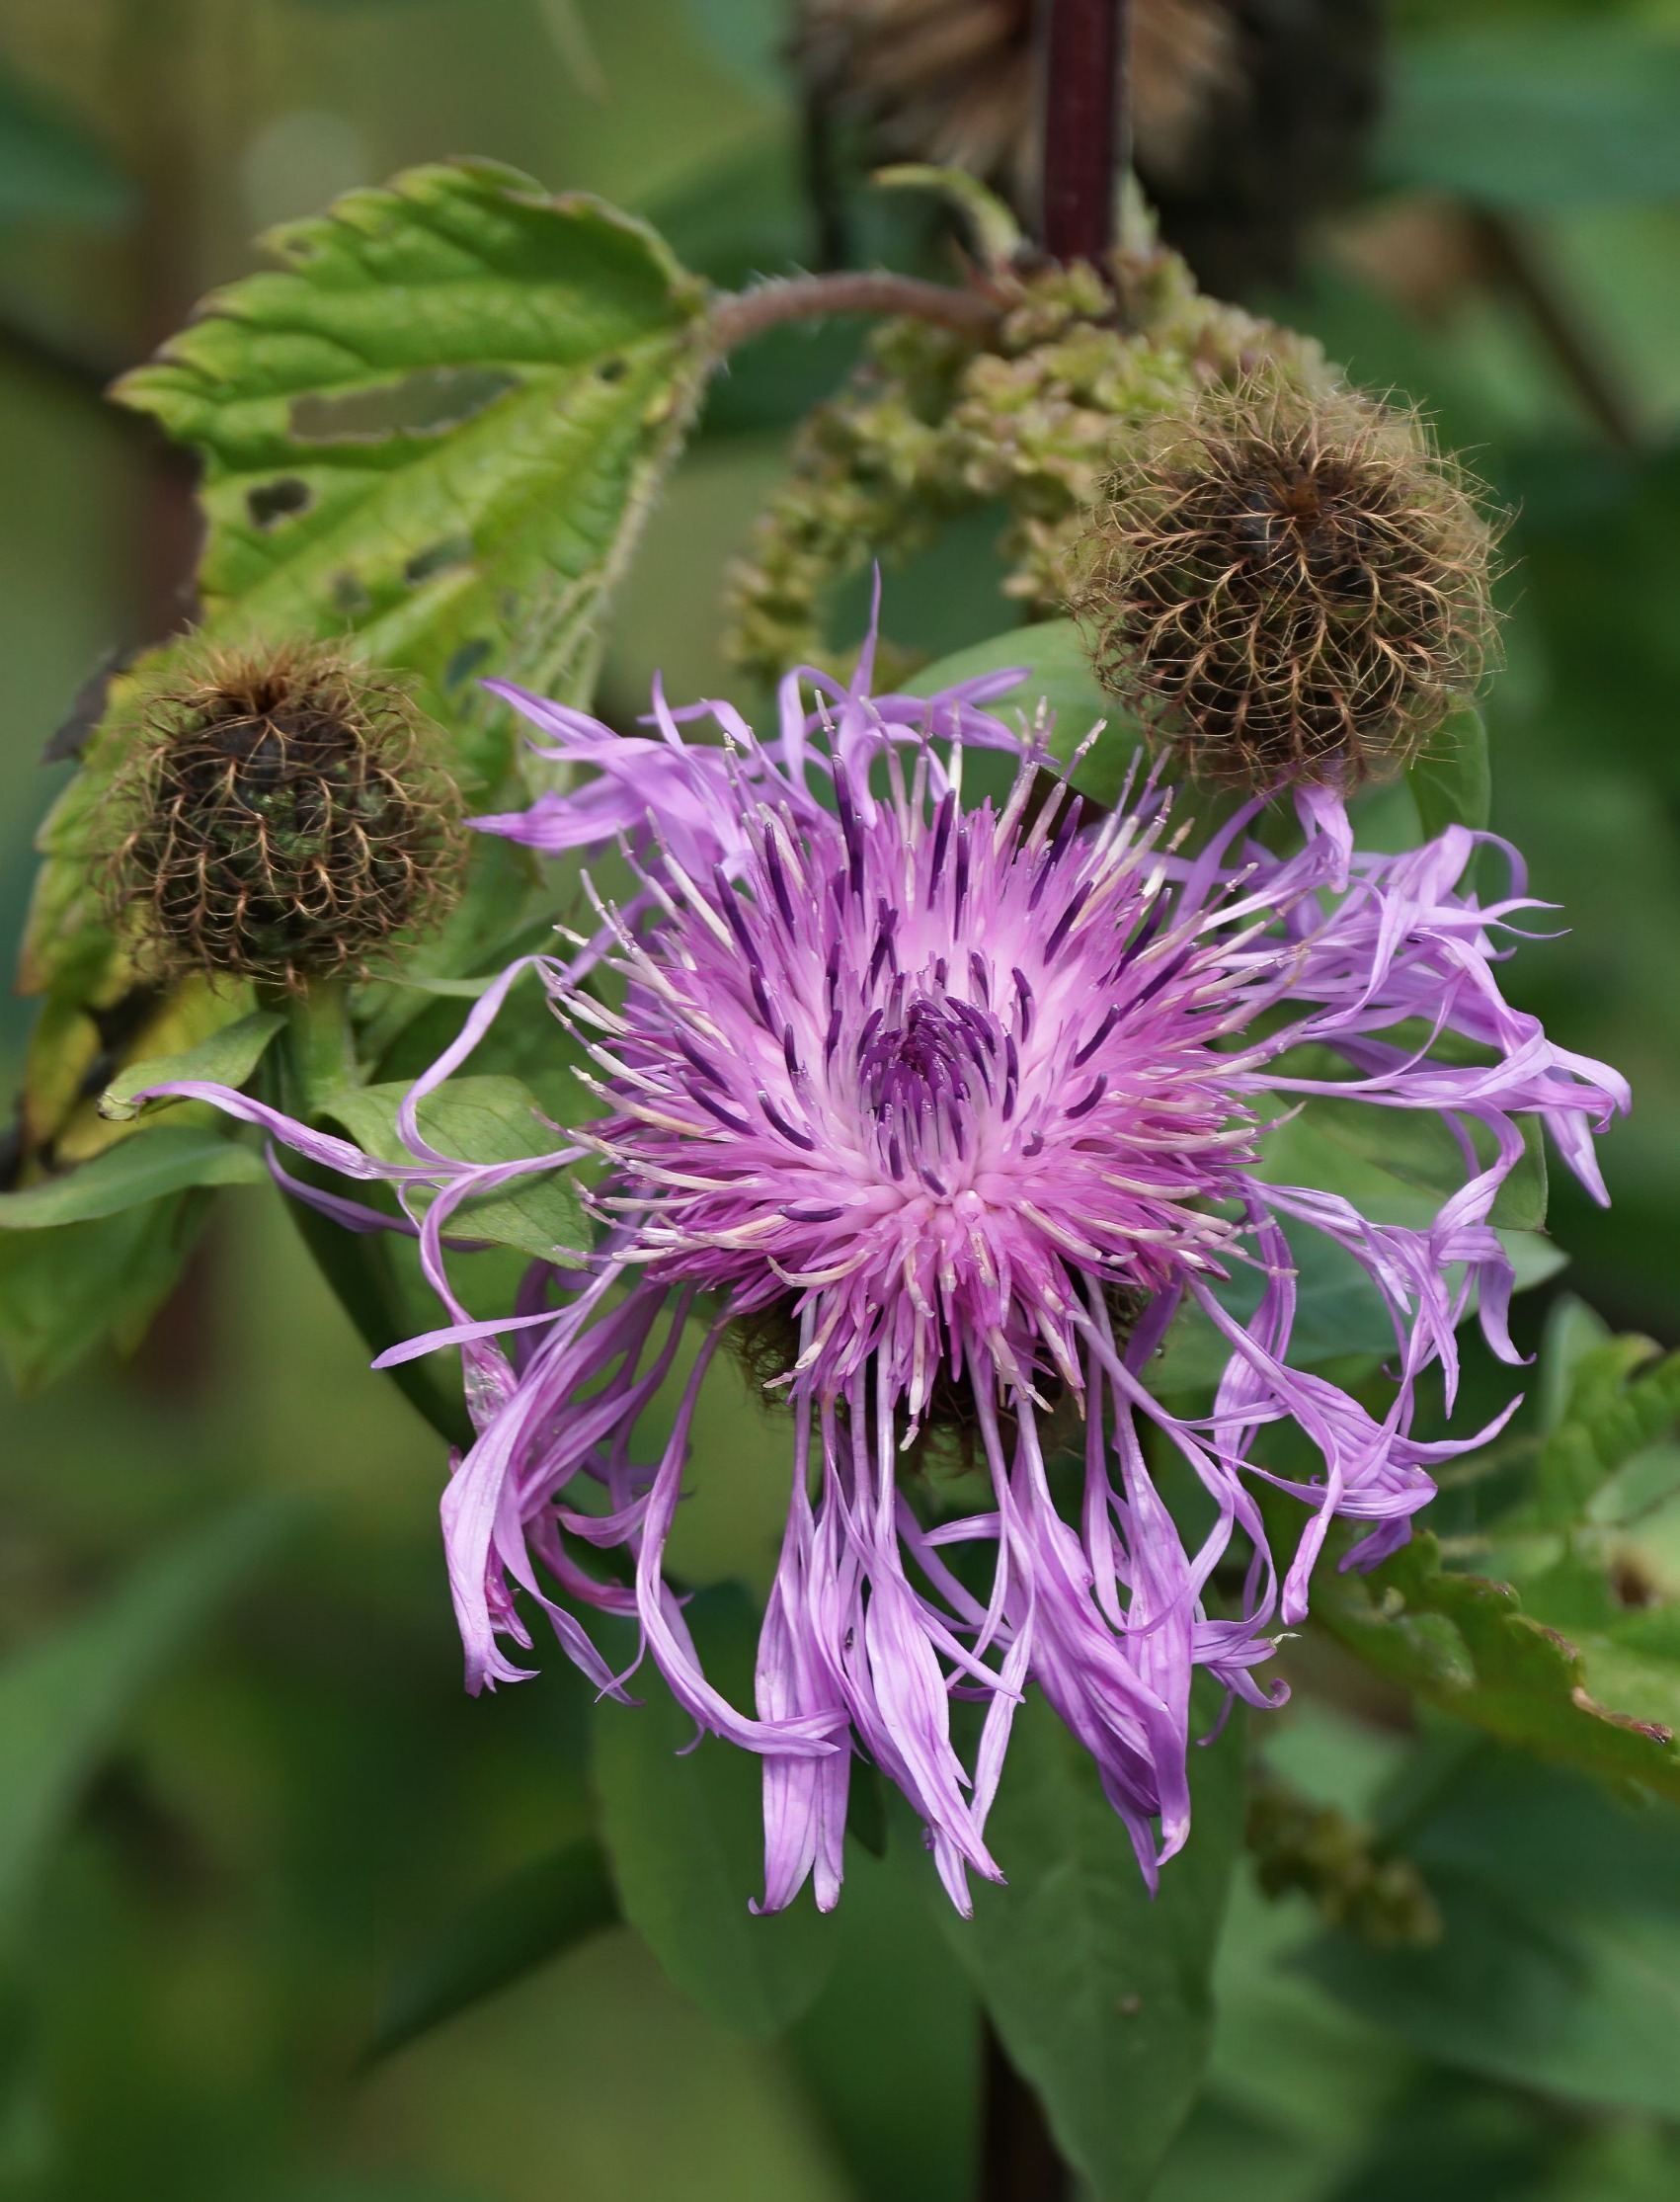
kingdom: Plantae
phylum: Tracheophyta
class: Magnoliopsida
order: Asterales
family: Asteraceae
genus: Centaurea
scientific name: Centaurea pseudophrygia
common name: Fjer-knopurt
